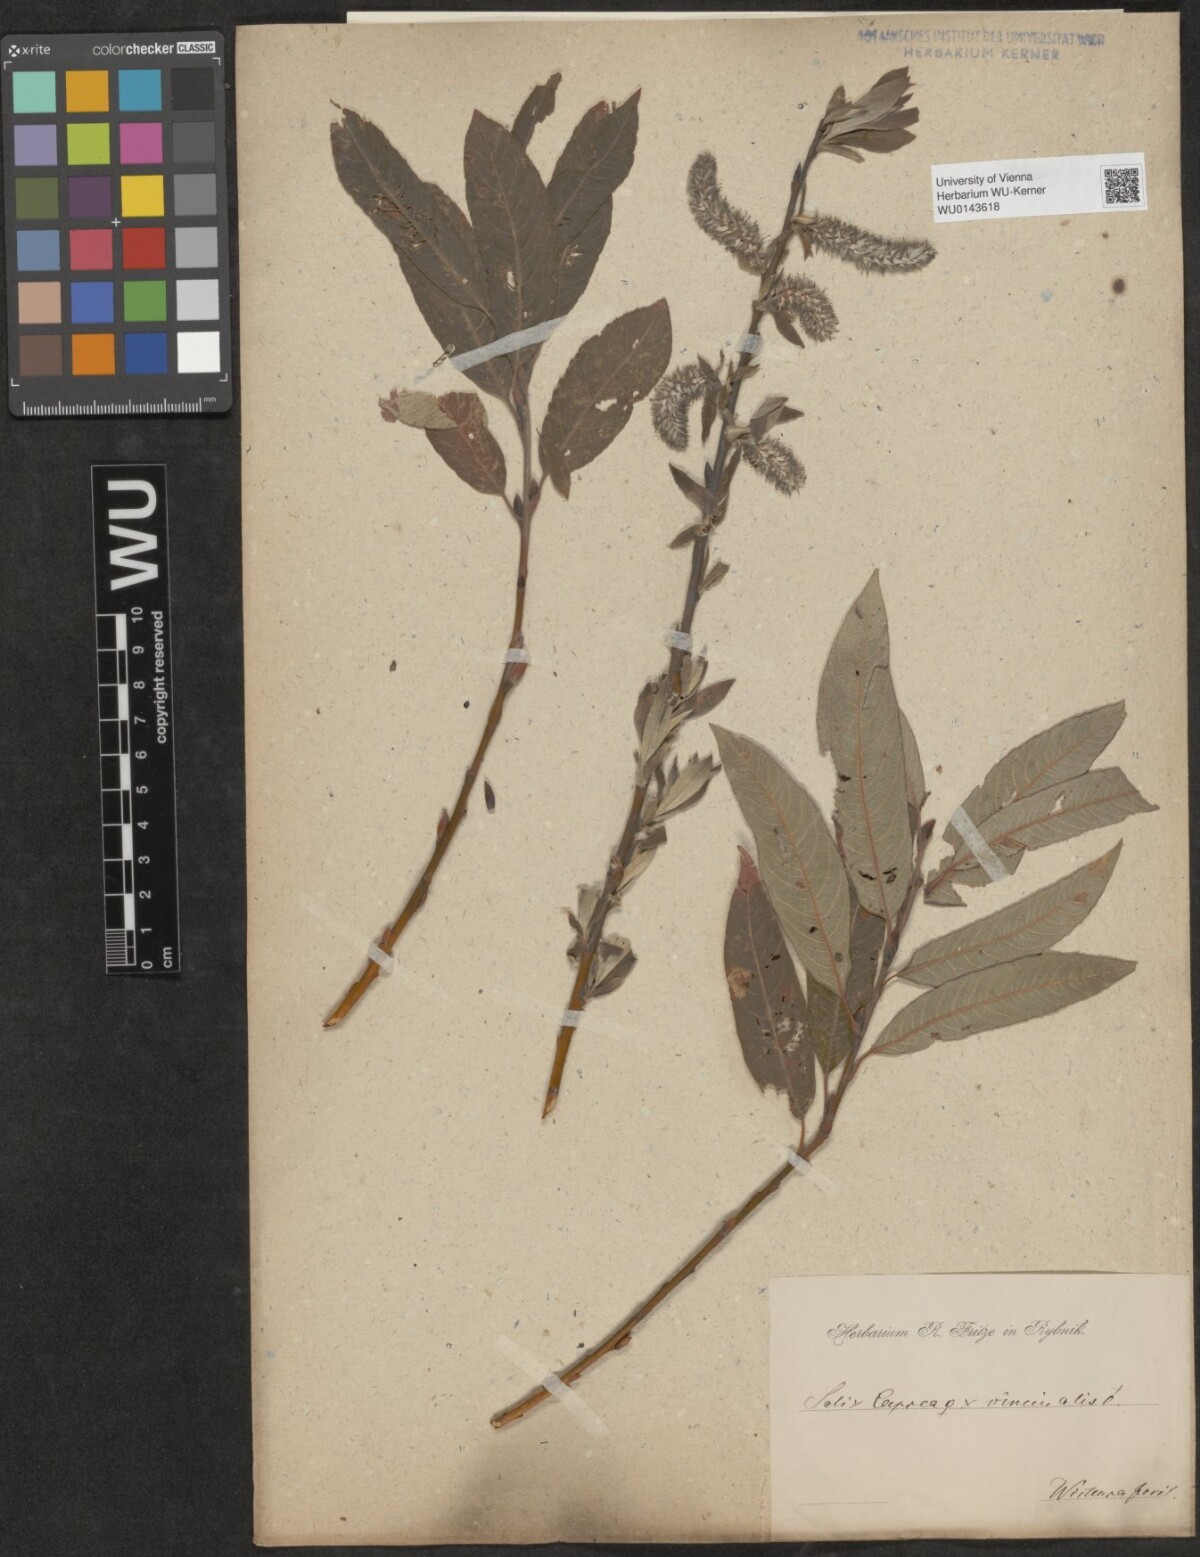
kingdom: Plantae
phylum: Tracheophyta
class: Magnoliopsida
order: Malpighiales
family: Salicaceae
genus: Salix
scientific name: Salix
